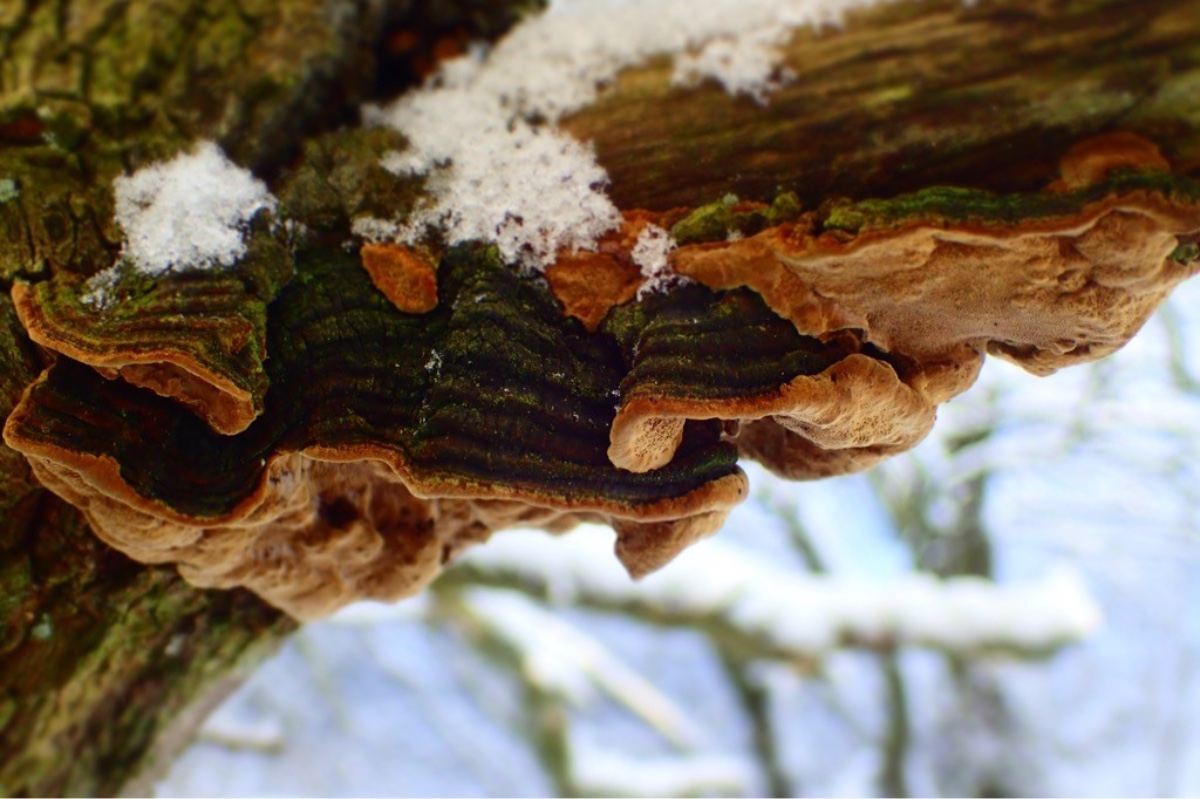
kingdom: Fungi
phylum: Basidiomycota
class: Agaricomycetes
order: Hymenochaetales
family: Hymenochaetaceae
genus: Phellinopsis
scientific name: Phellinopsis conchata
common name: pile-ildporesvamp
